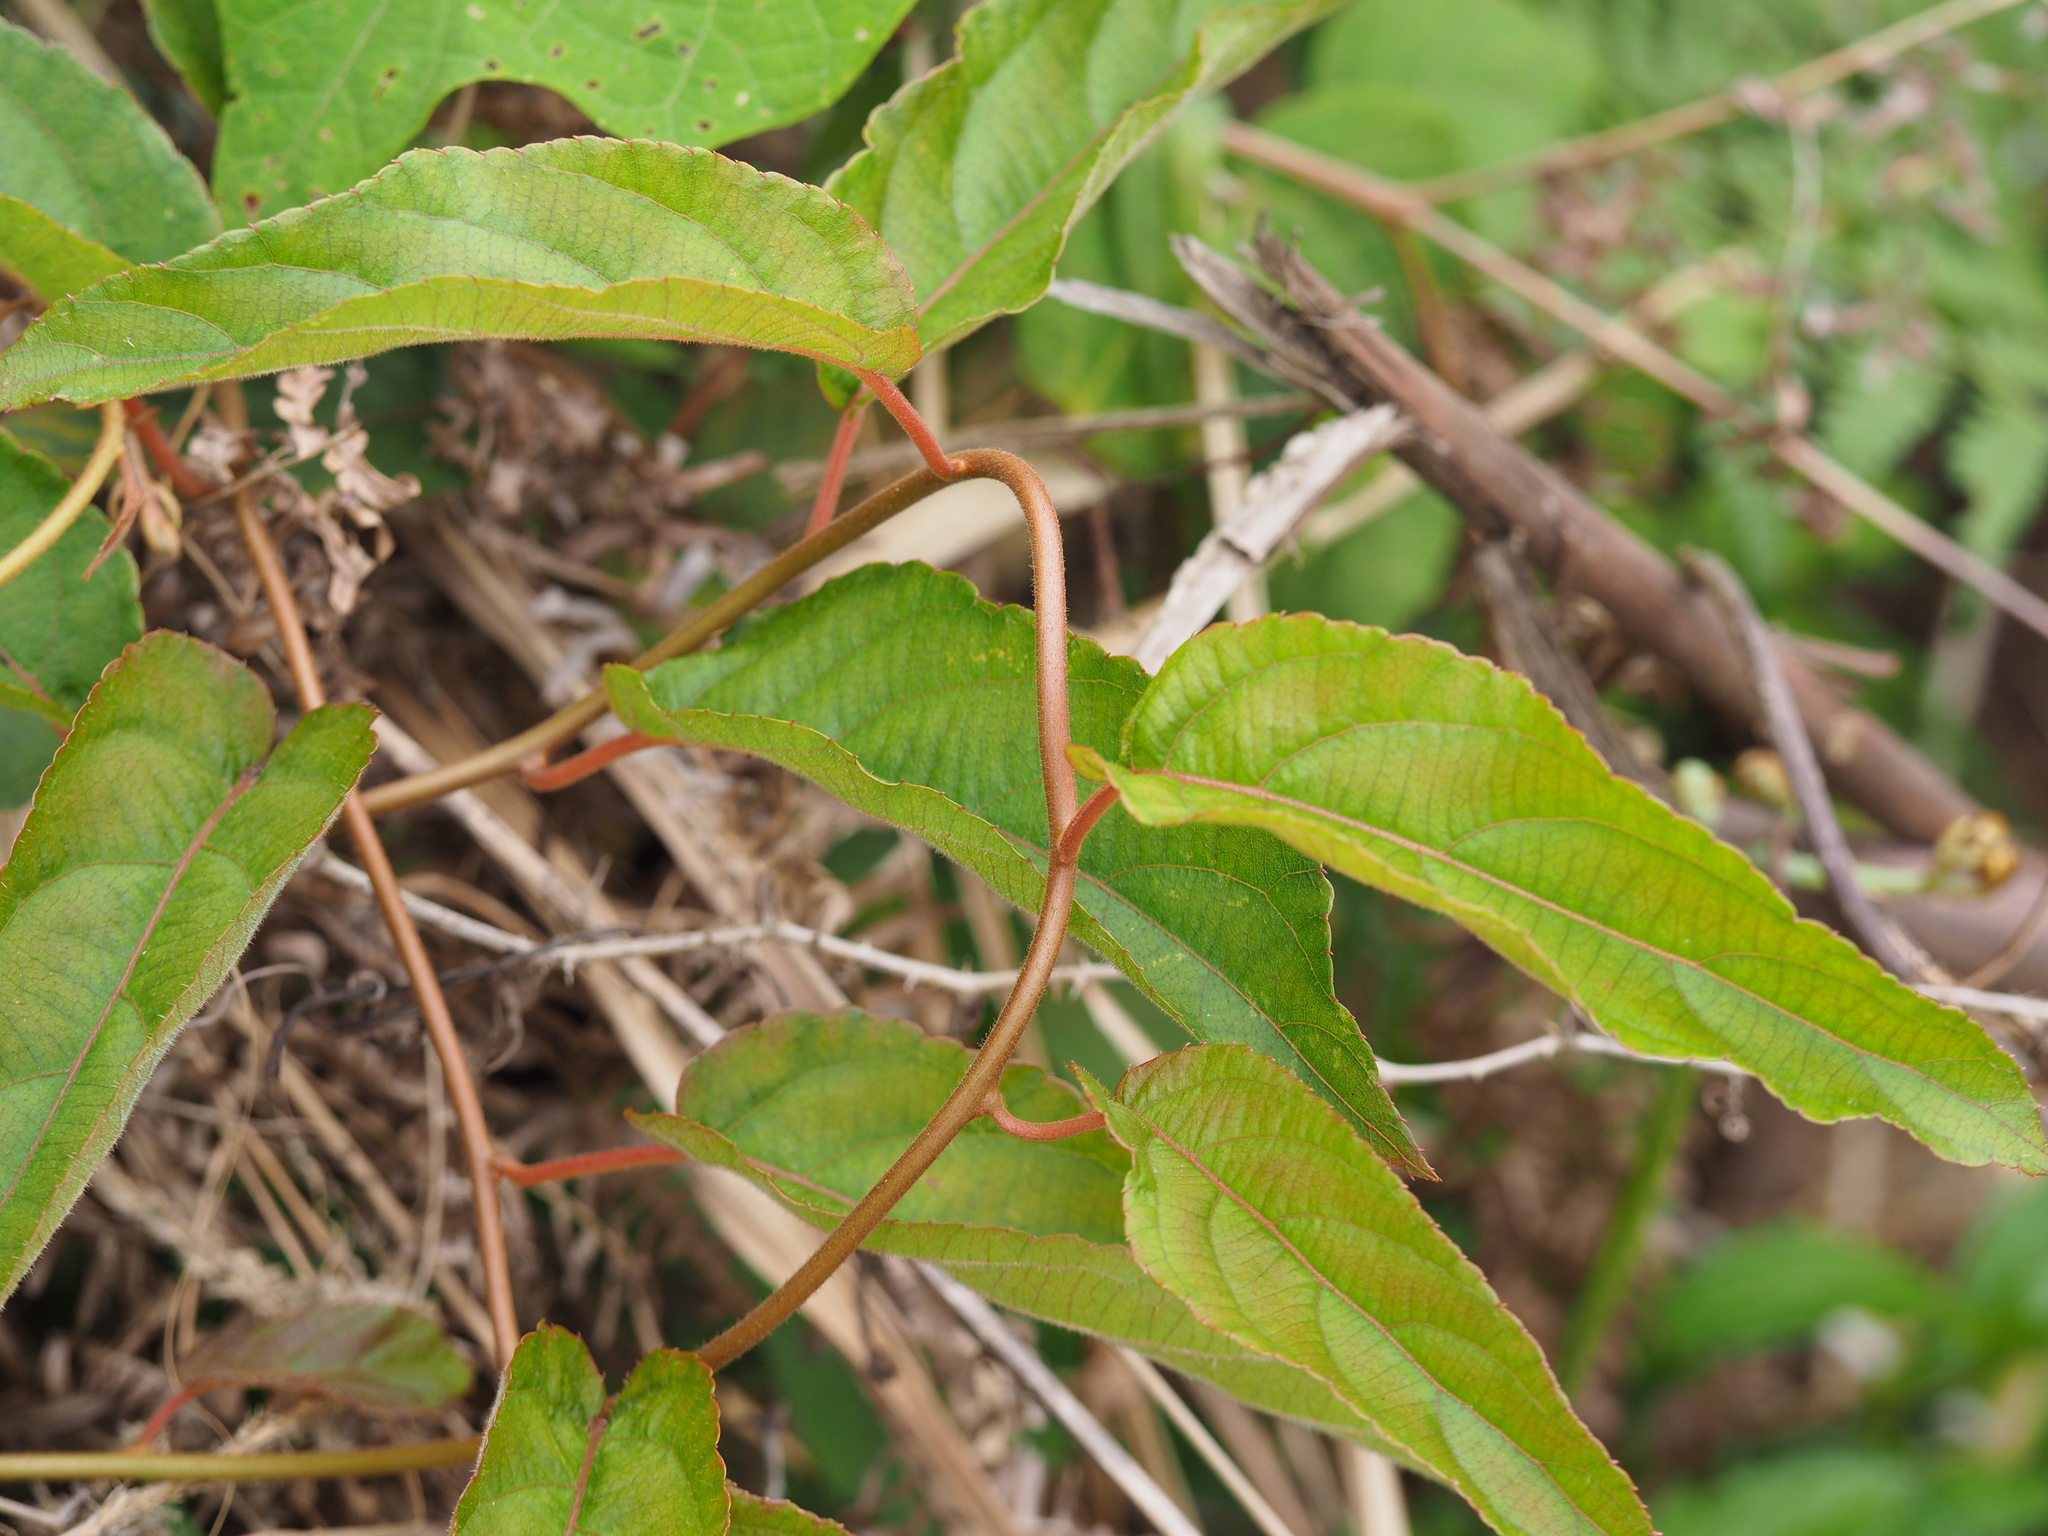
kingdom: Plantae
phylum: Tracheophyta
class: Magnoliopsida
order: Ericales
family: Actinidiaceae
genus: Actinidia
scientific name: Actinidia rufa
